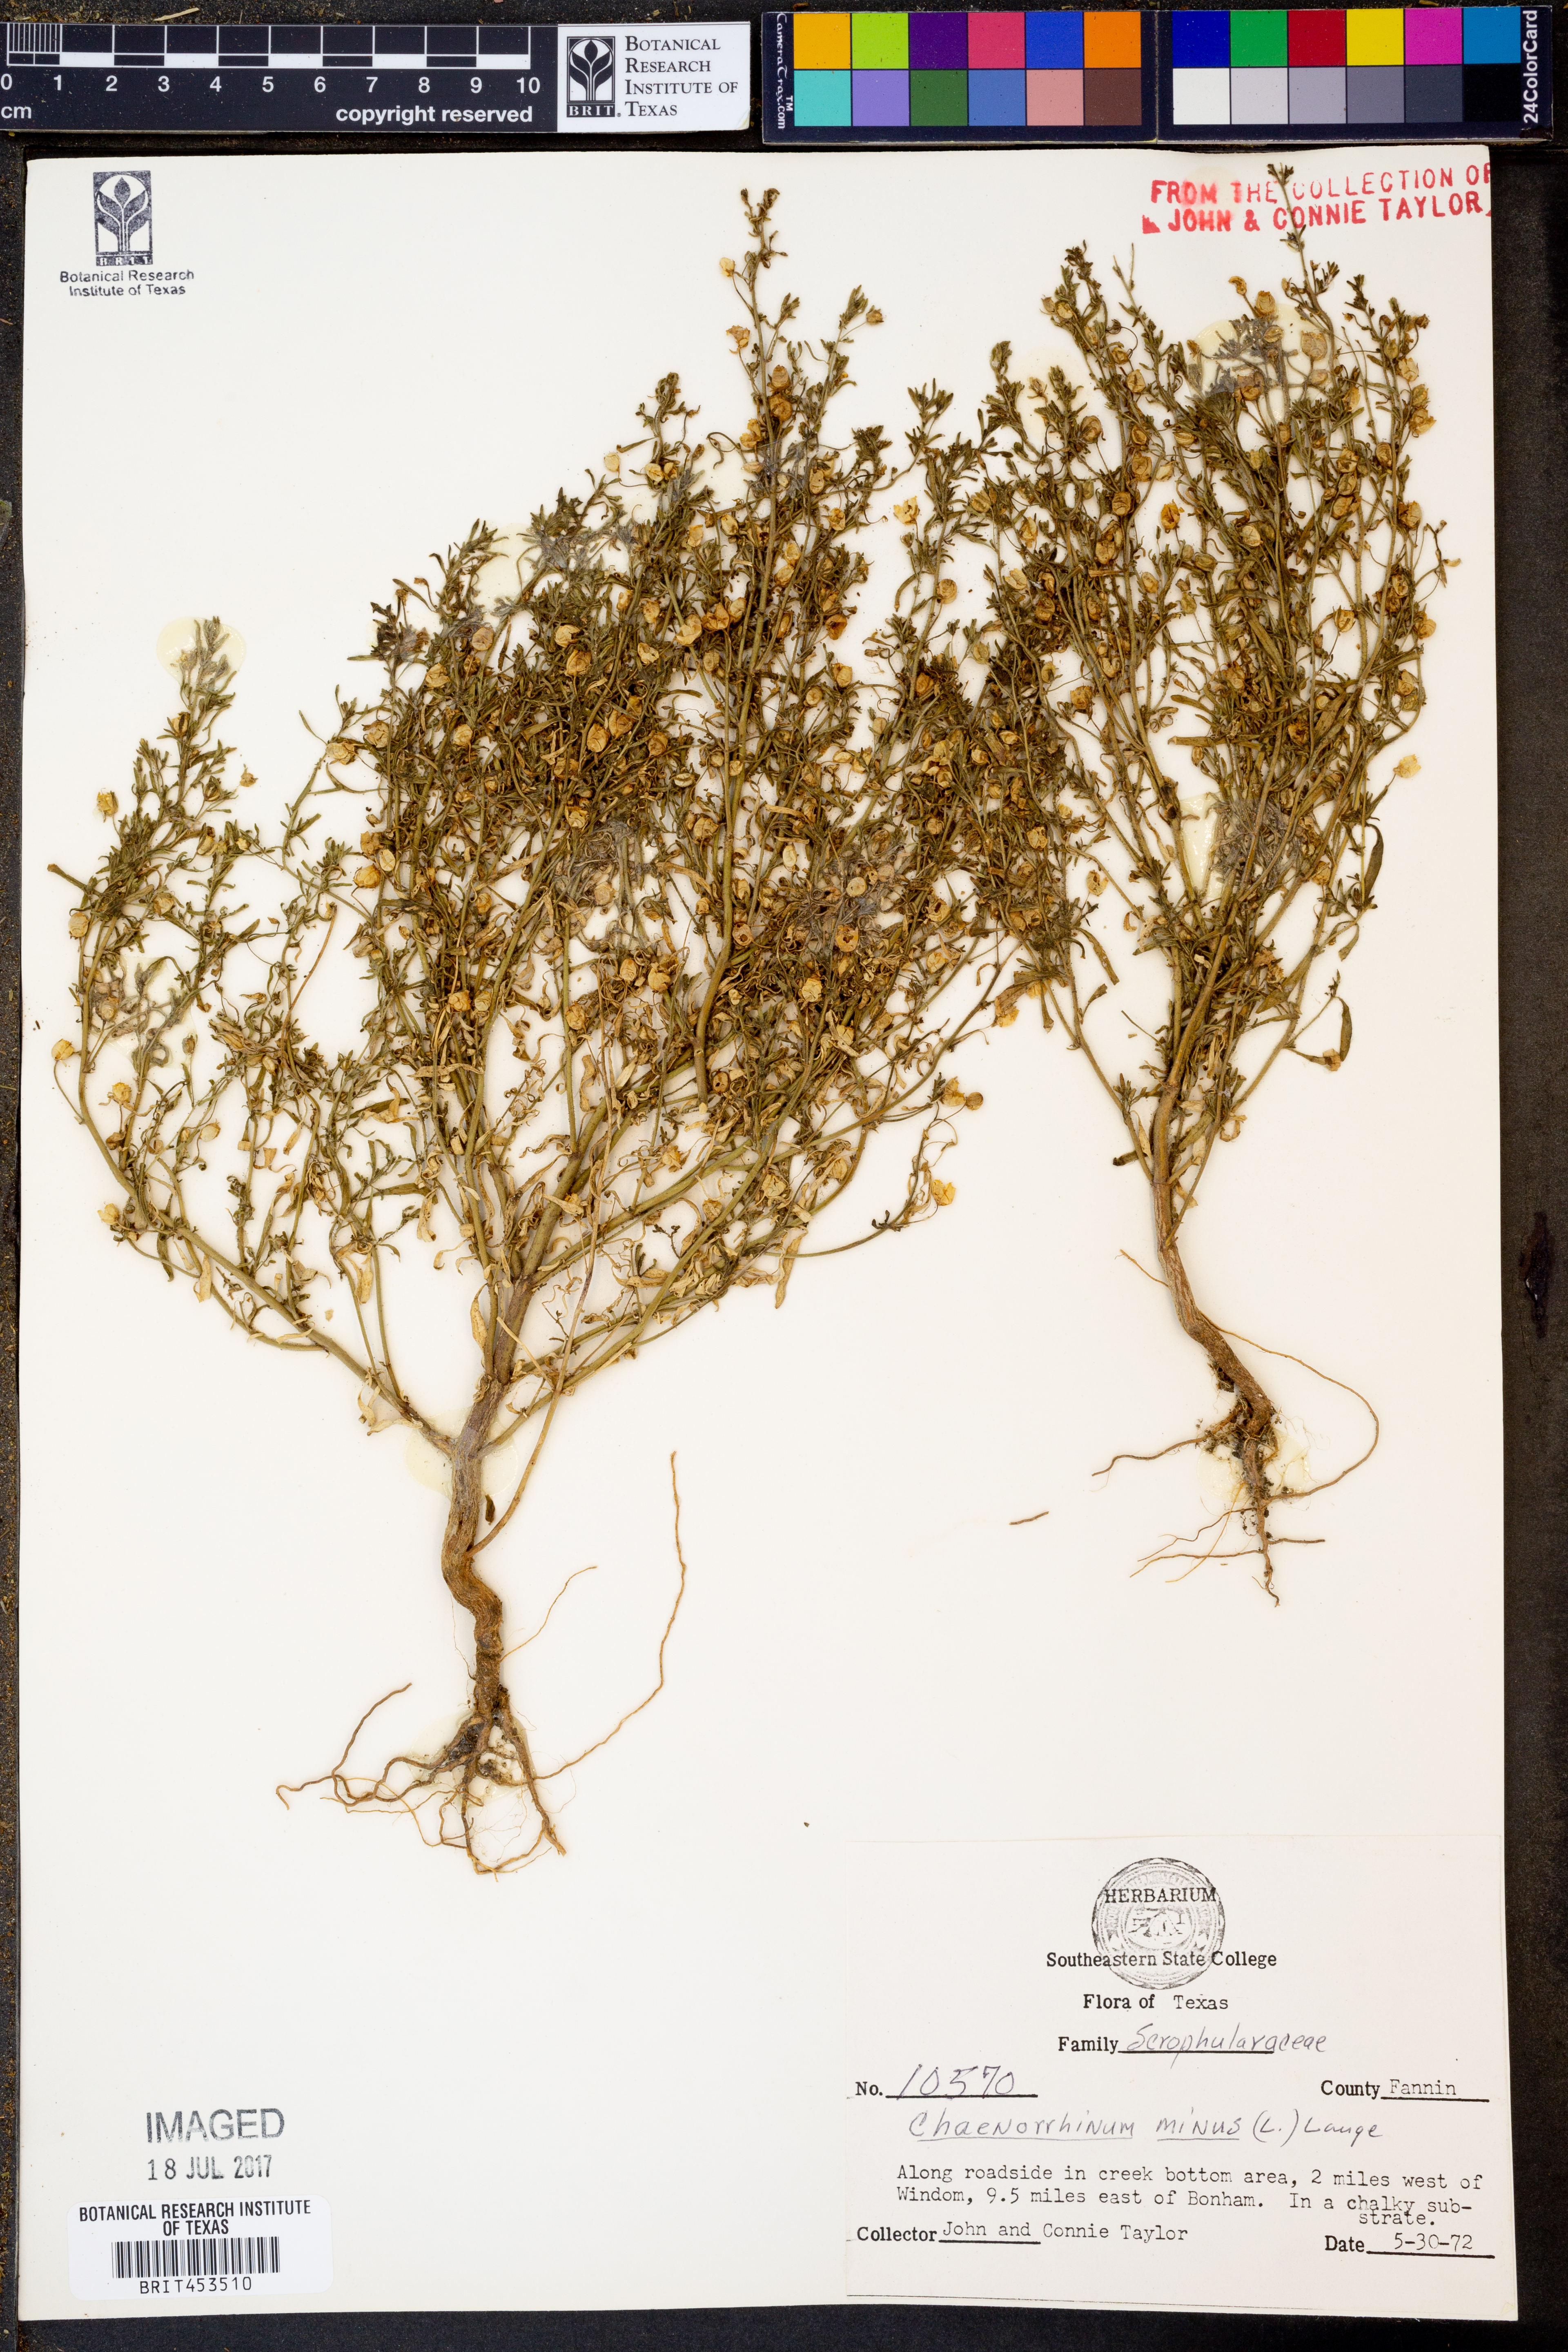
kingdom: Plantae
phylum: Tracheophyta
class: Magnoliopsida
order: Lamiales
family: Plantaginaceae
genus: Chaenorhinum
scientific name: Chaenorhinum minus
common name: Dwarf snapdragon
